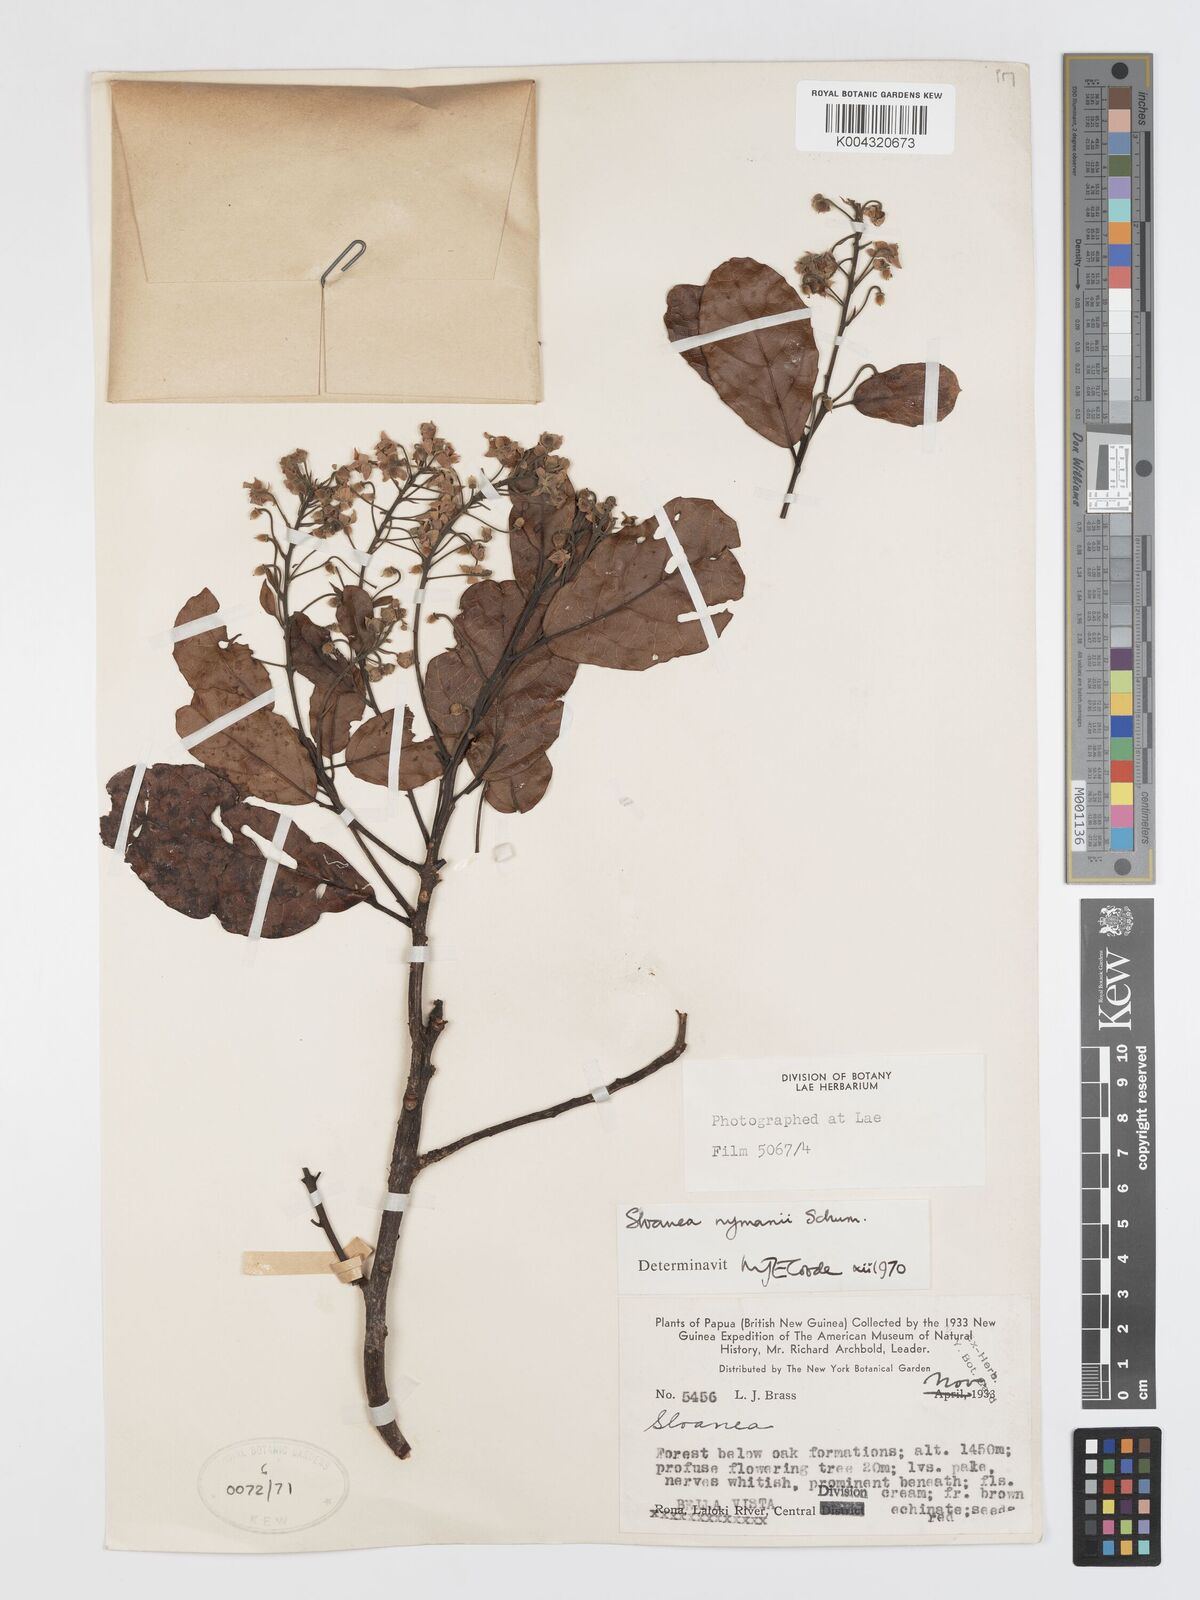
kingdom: Plantae
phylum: Tracheophyta
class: Magnoliopsida
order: Oxalidales
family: Elaeocarpaceae
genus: Sloanea
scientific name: Sloanea nymanii
